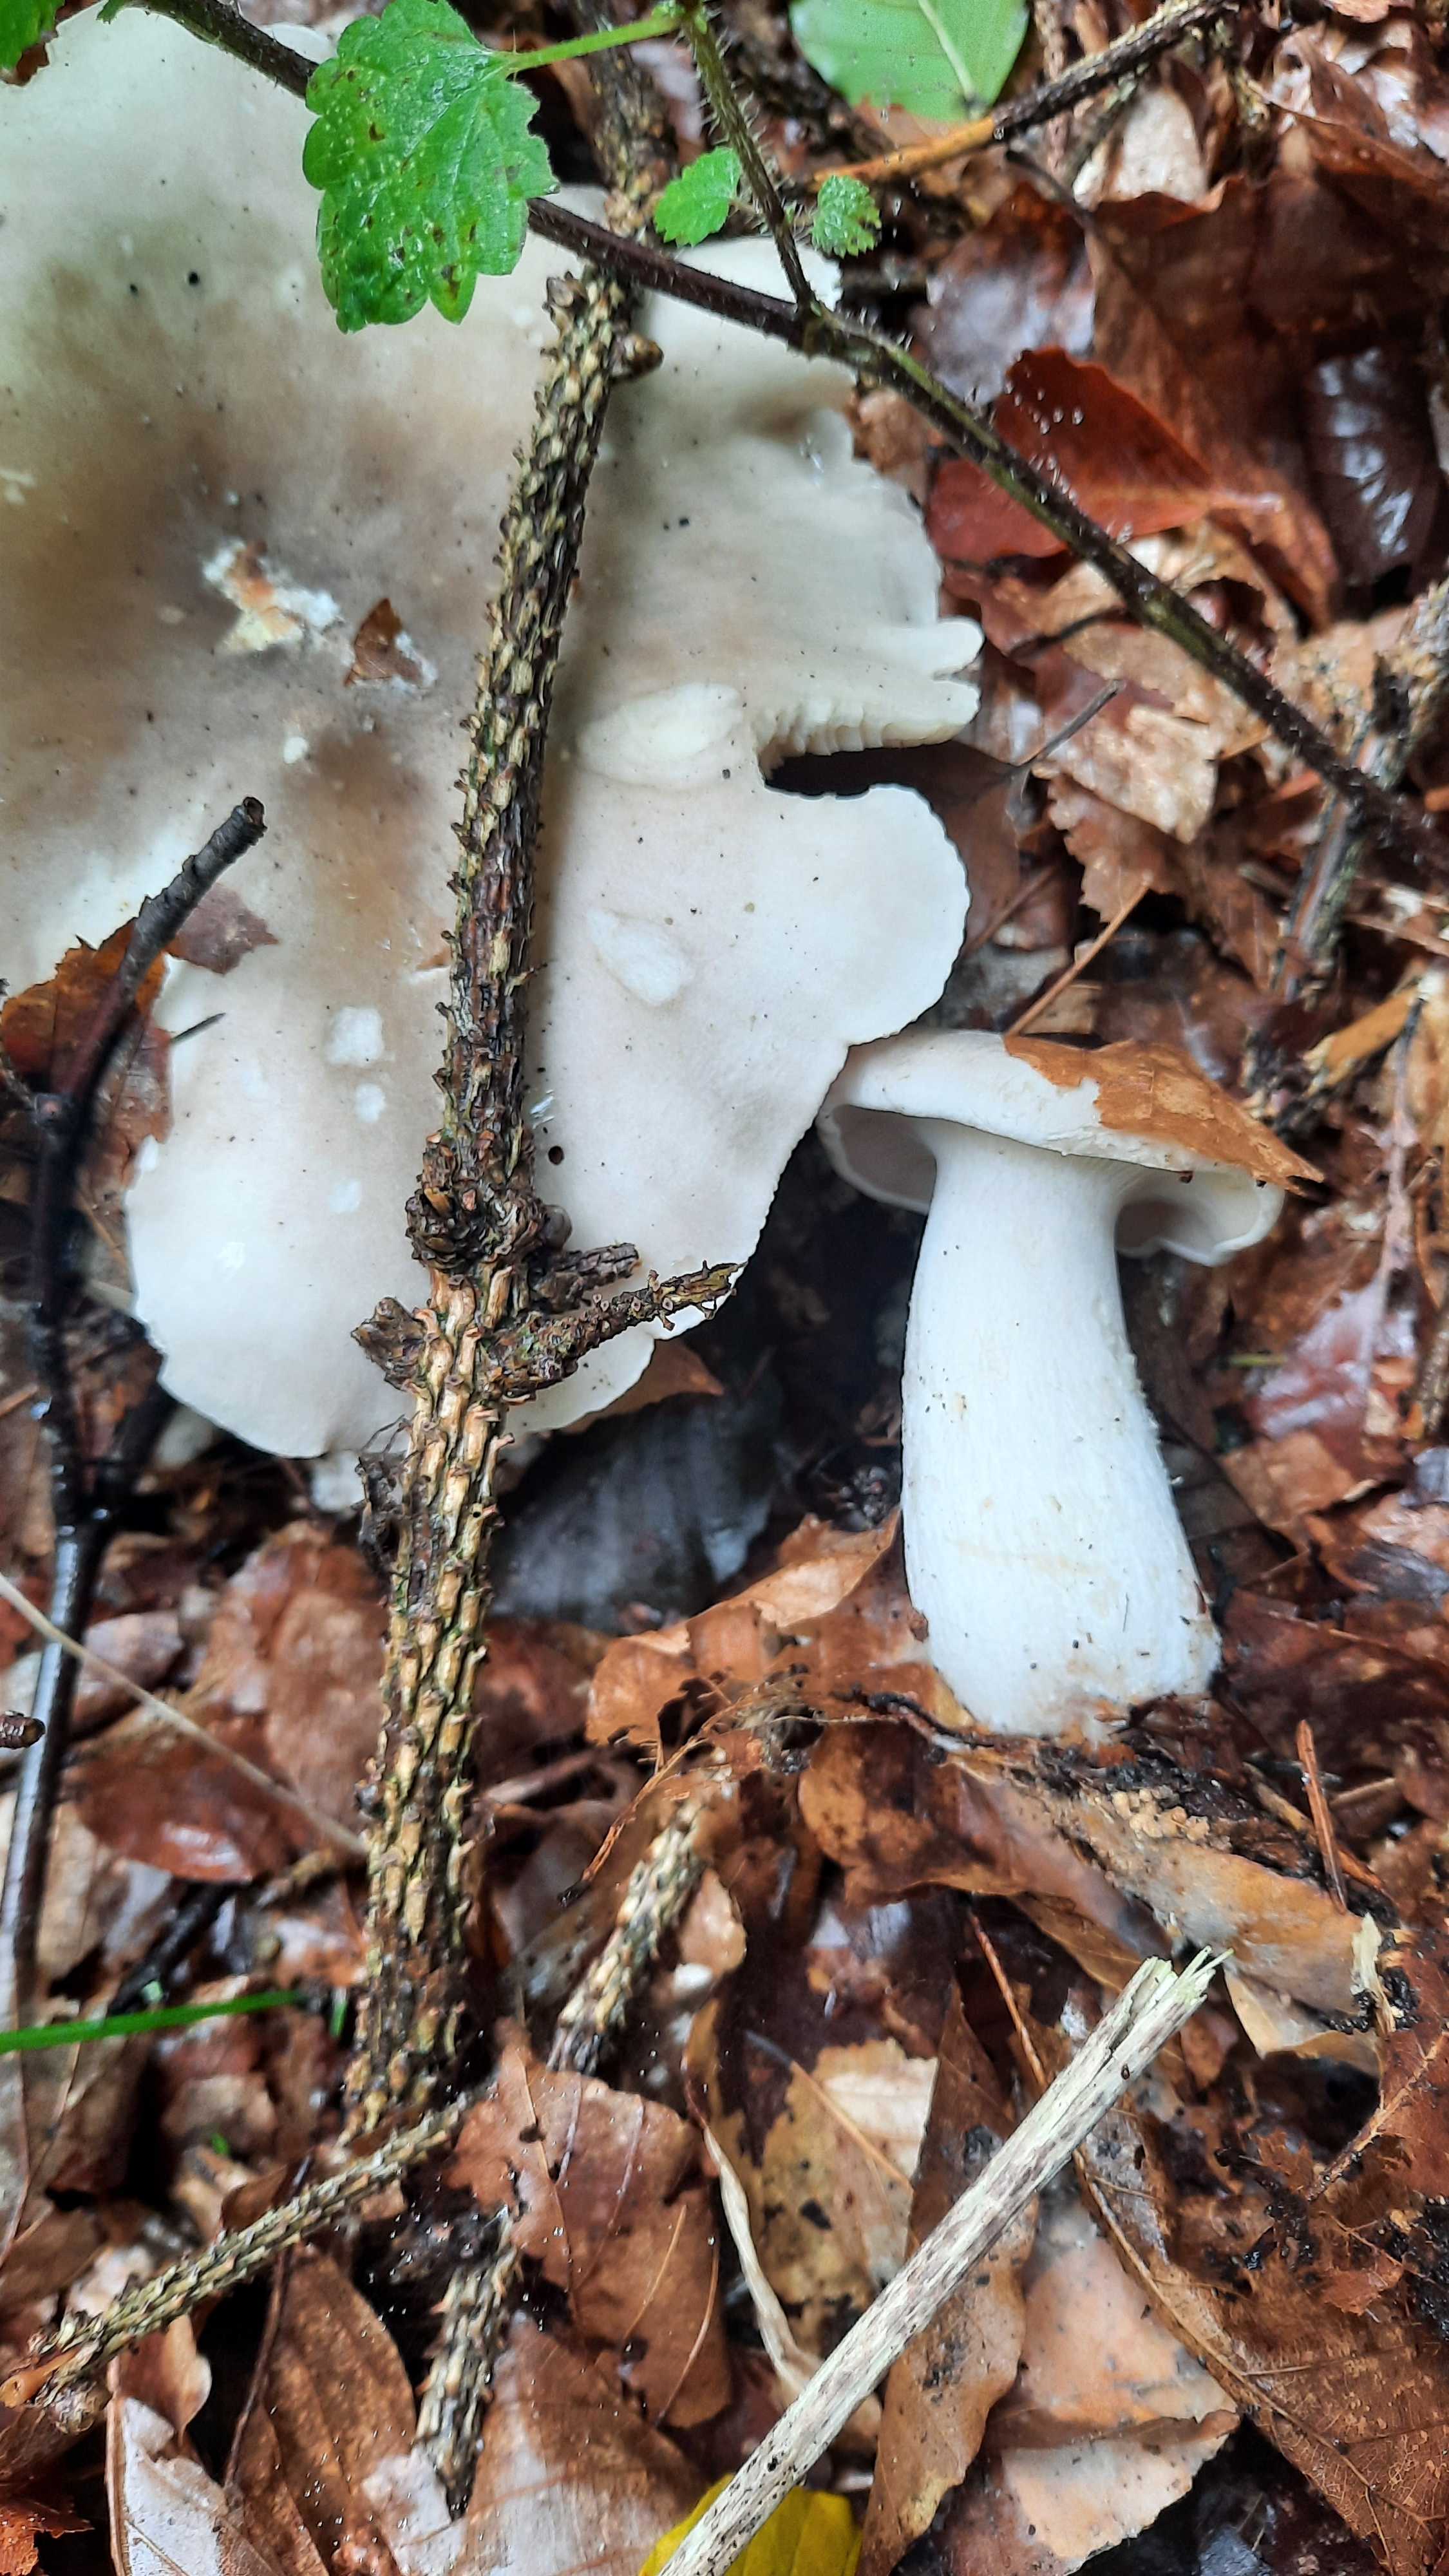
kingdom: Fungi
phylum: Basidiomycota
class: Agaricomycetes
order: Agaricales
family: Tricholomataceae
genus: Clitocybe
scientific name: Clitocybe nebularis
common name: tåge-tragthat
